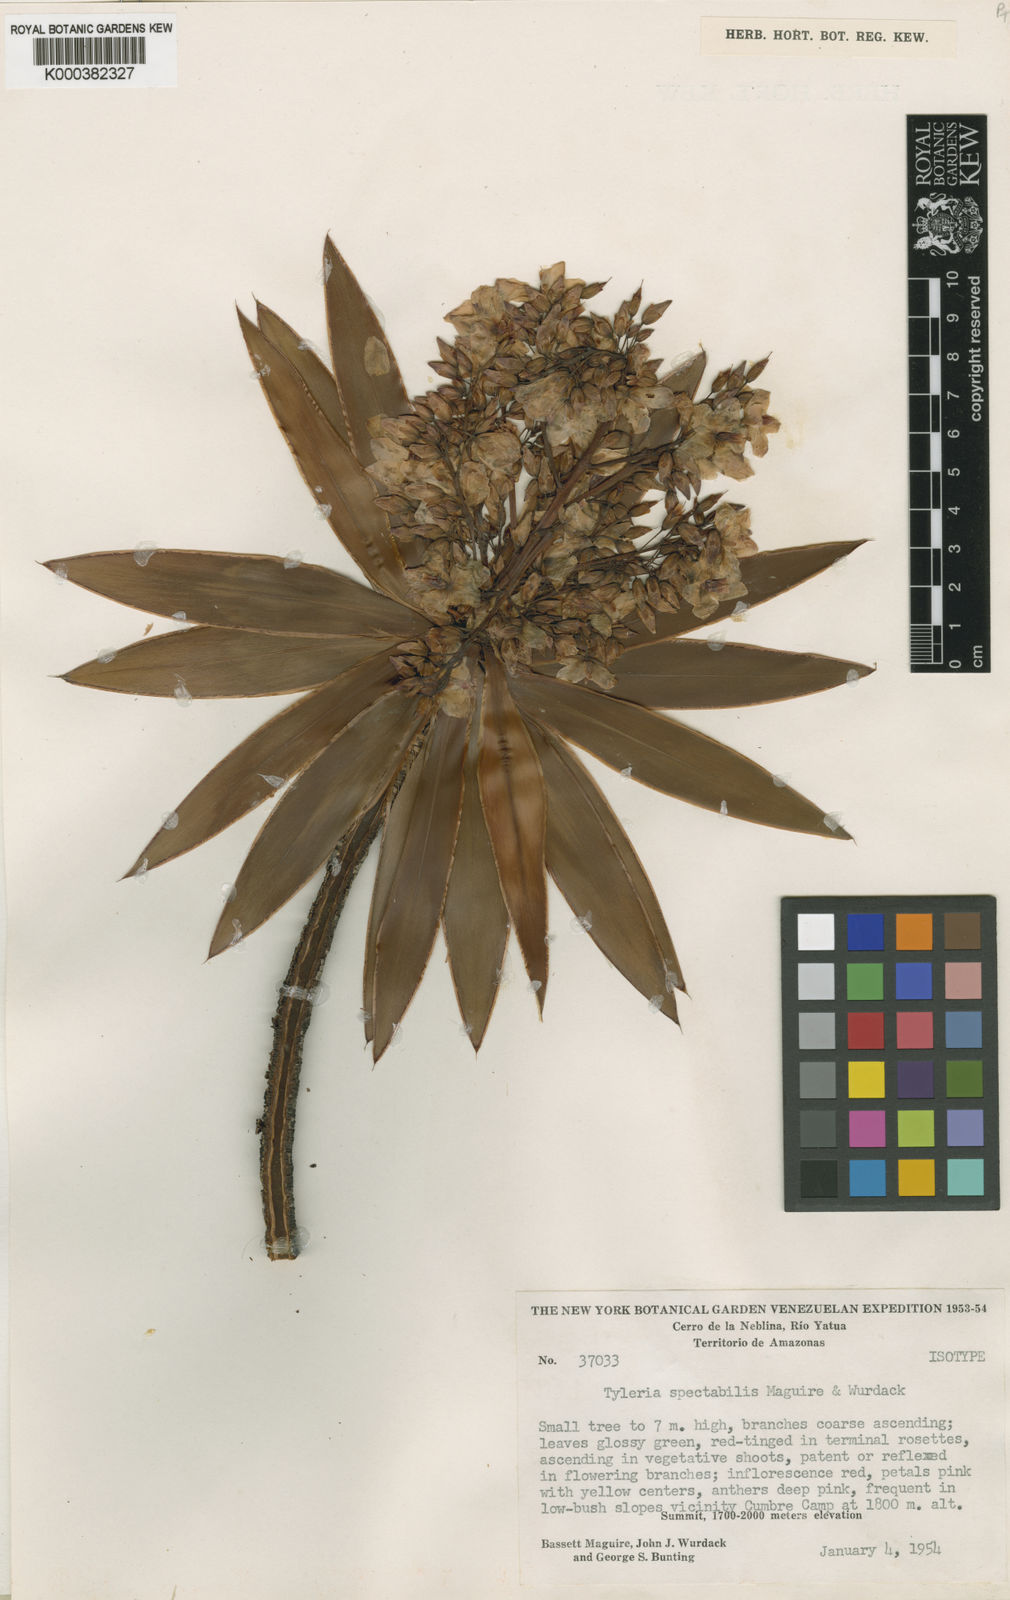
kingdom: Plantae
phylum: Tracheophyta
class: Magnoliopsida
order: Malpighiales
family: Ochnaceae
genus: Tyleria
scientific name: Tyleria spectabilis
